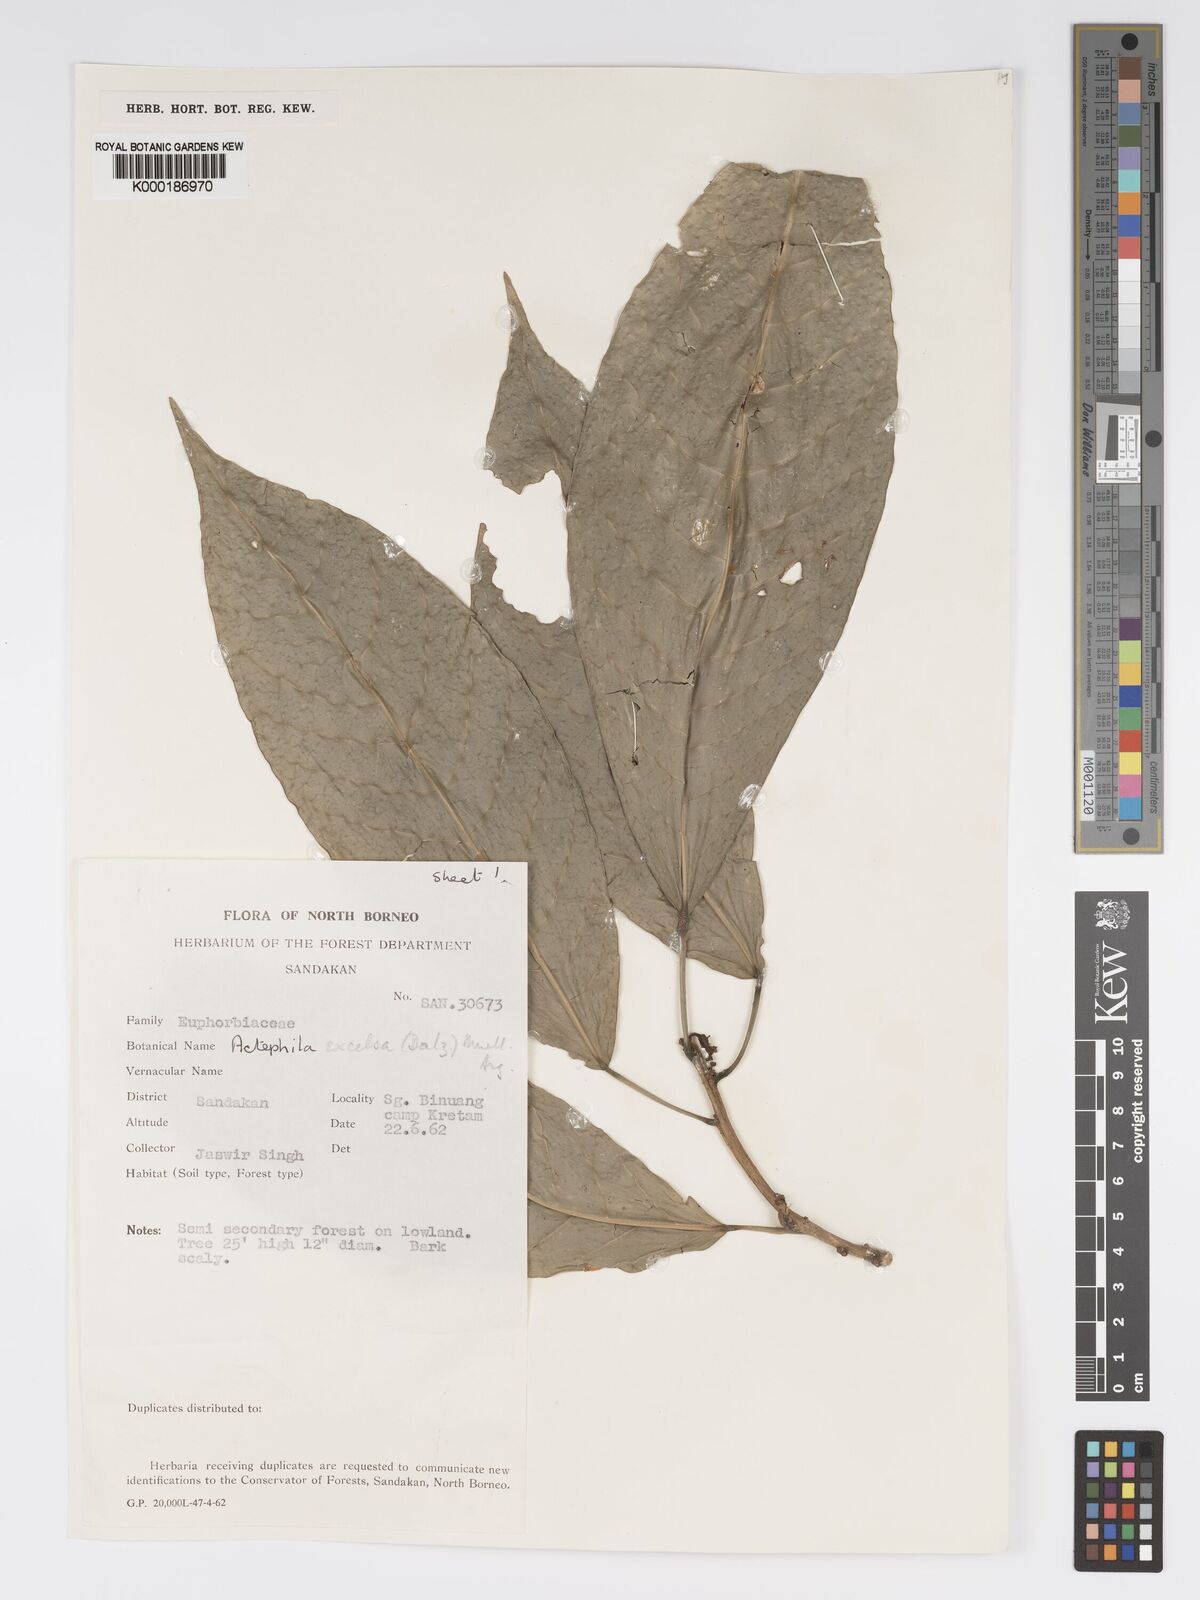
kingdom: Plantae
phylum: Tracheophyta
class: Magnoliopsida
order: Malpighiales
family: Phyllanthaceae
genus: Actephila
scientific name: Actephila
